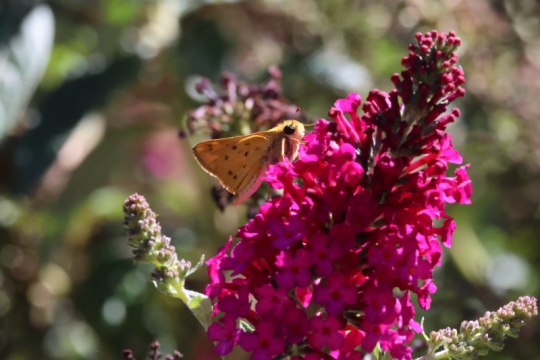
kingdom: Animalia
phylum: Arthropoda
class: Insecta
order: Lepidoptera
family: Hesperiidae
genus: Hylephila
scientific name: Hylephila phyleus
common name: Fiery Skipper
